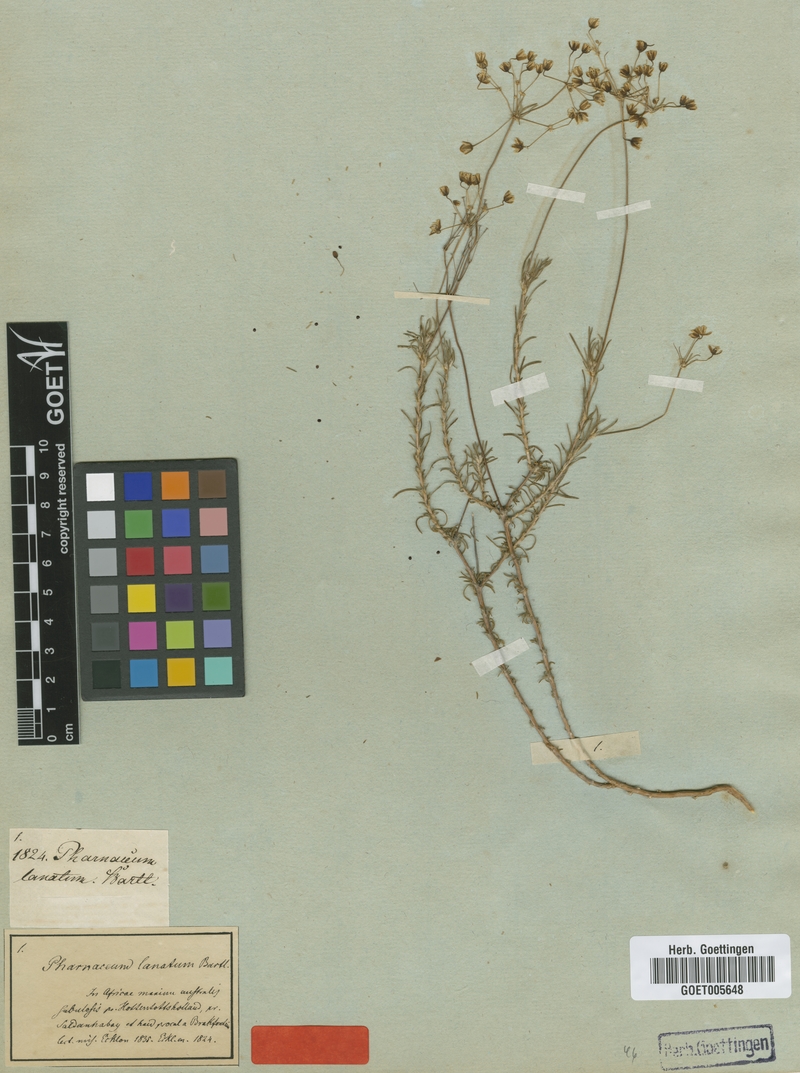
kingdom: Plantae
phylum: Tracheophyta
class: Magnoliopsida
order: Caryophyllales
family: Molluginaceae
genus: Pharnaceum
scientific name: Pharnaceum lanatum
